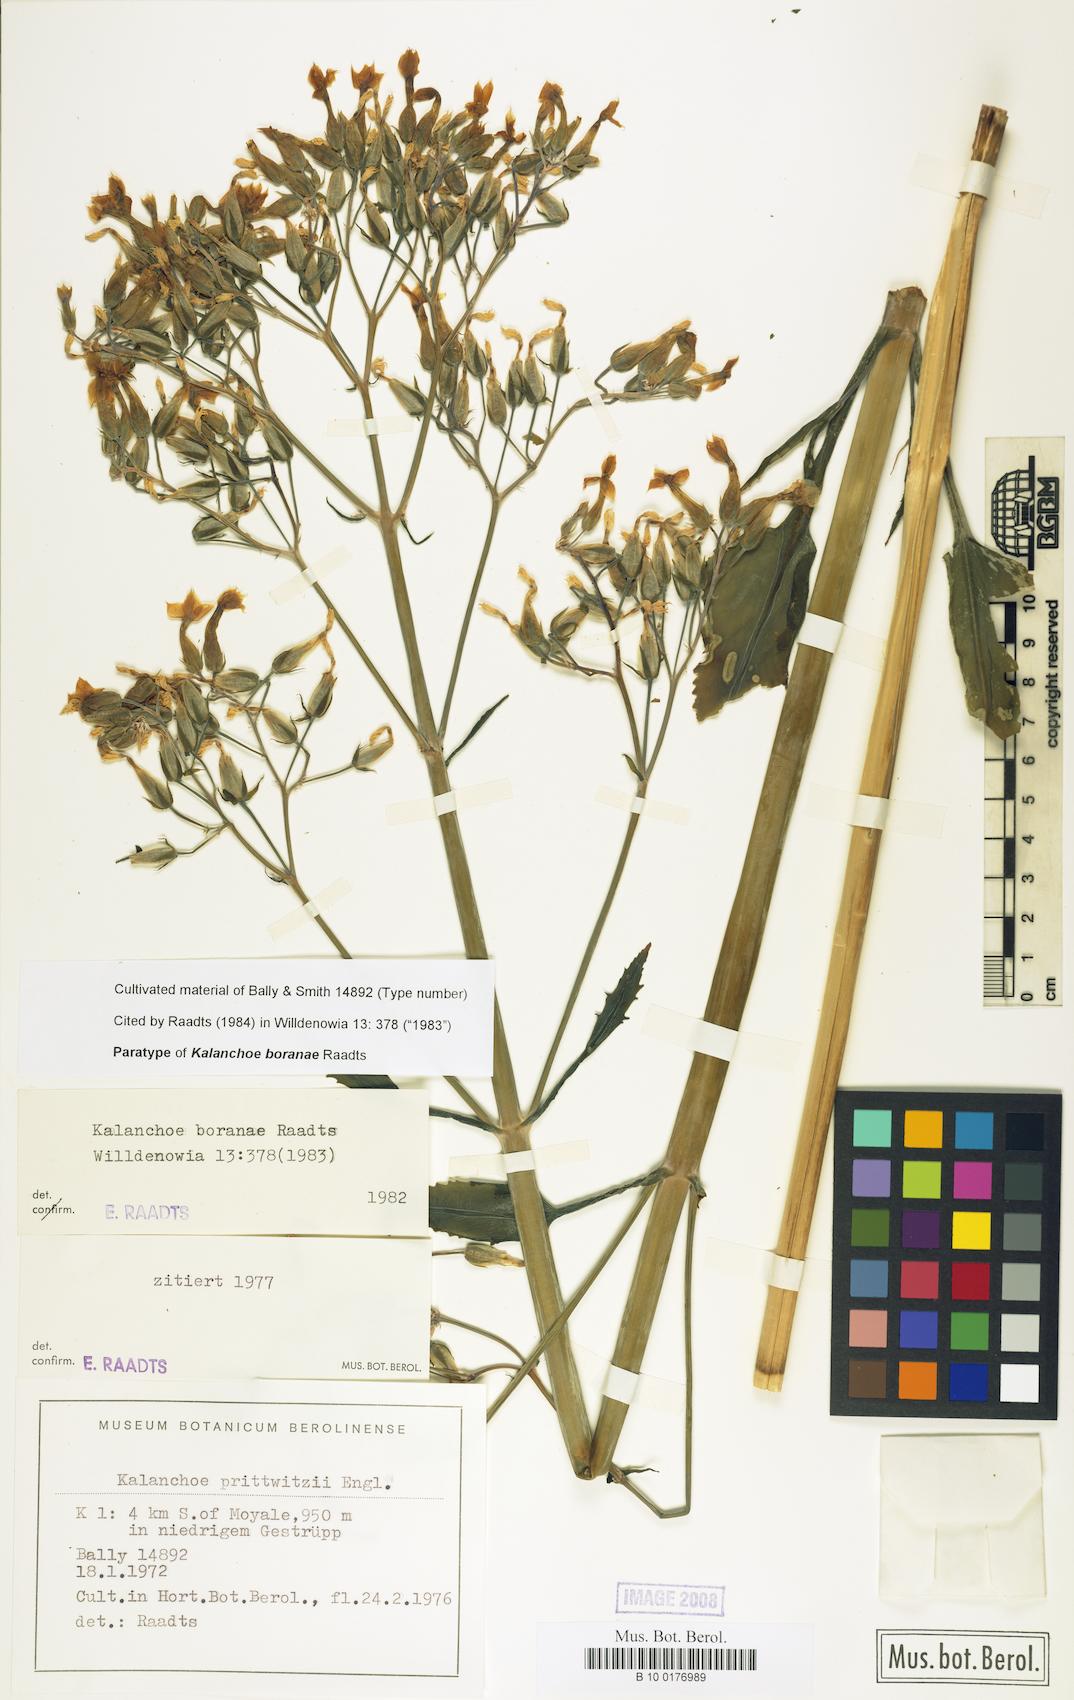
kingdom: Plantae
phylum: Tracheophyta
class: Magnoliopsida
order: Saxifragales
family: Crassulaceae
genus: Kalanchoe
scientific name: Kalanchoe boranae
